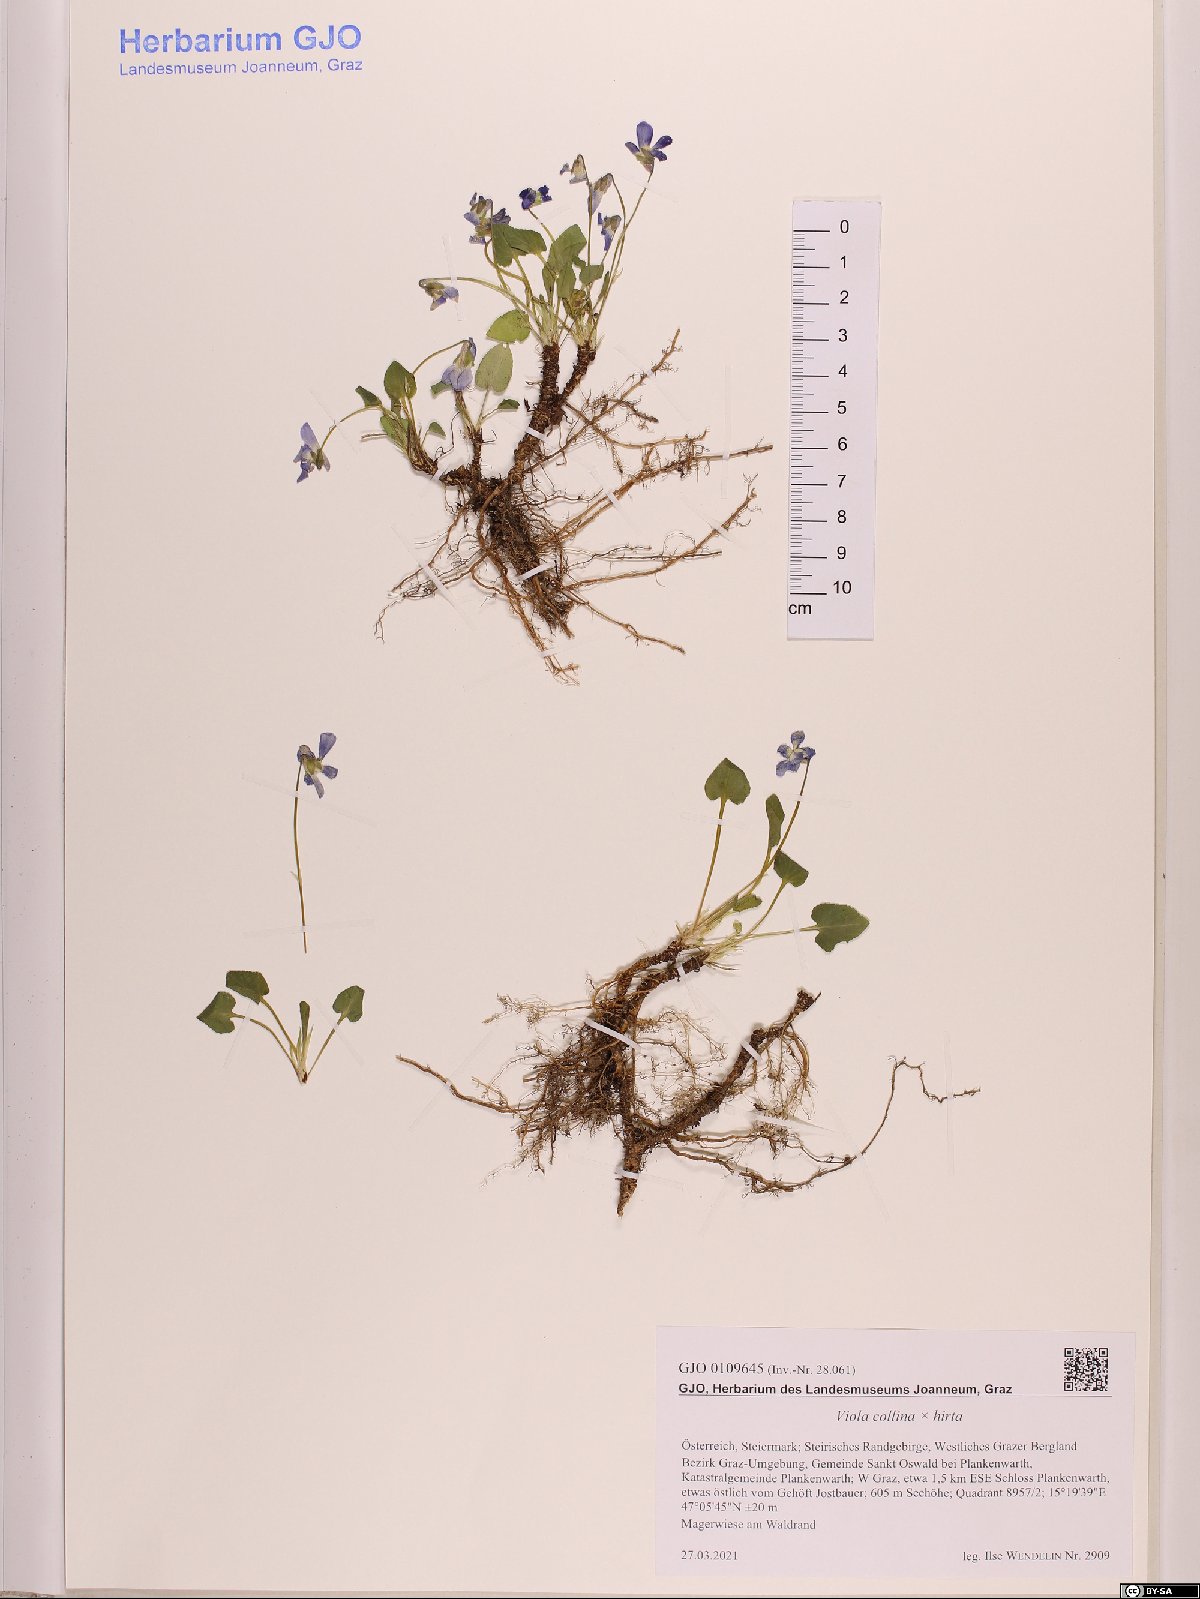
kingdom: Plantae
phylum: Tracheophyta
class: Magnoliopsida
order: Malpighiales
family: Violaceae
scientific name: Violaceae
